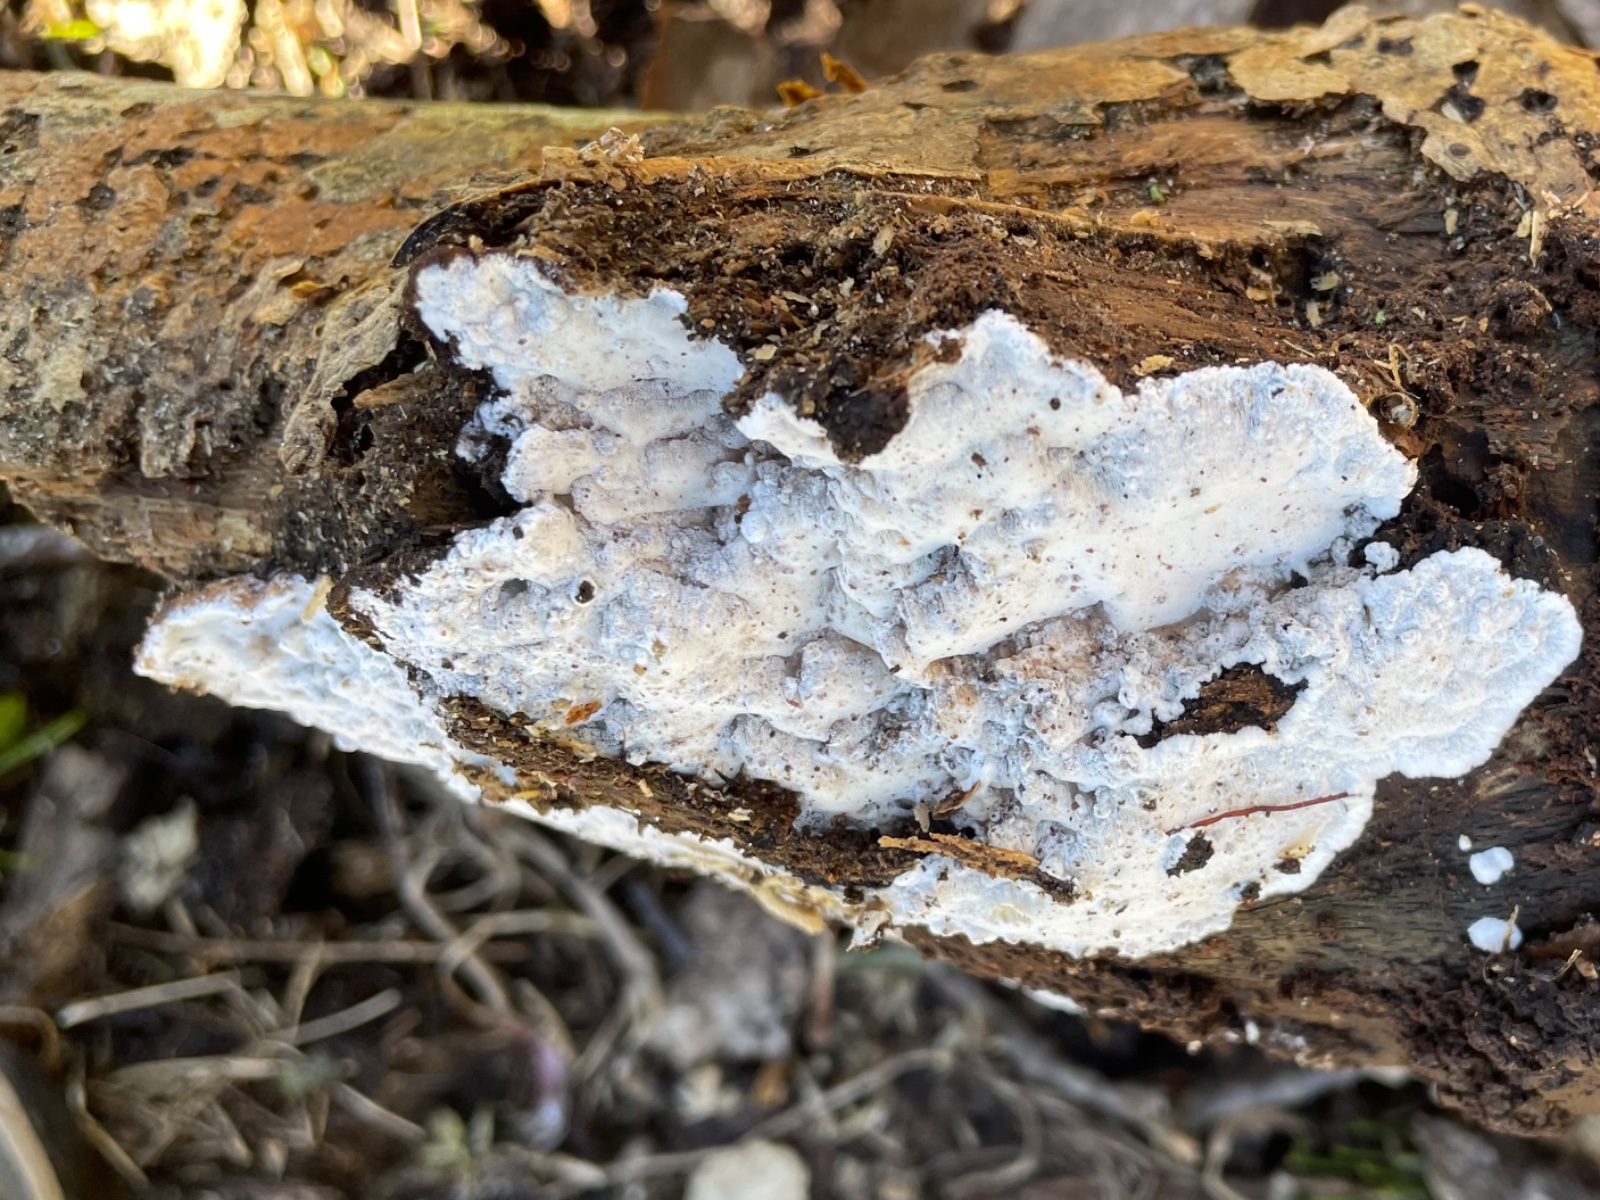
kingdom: Fungi
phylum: Basidiomycota
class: Agaricomycetes
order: Polyporales
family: Incrustoporiaceae
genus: Skeletocutis
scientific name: Skeletocutis nemoralis
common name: stor krystalporesvamp
